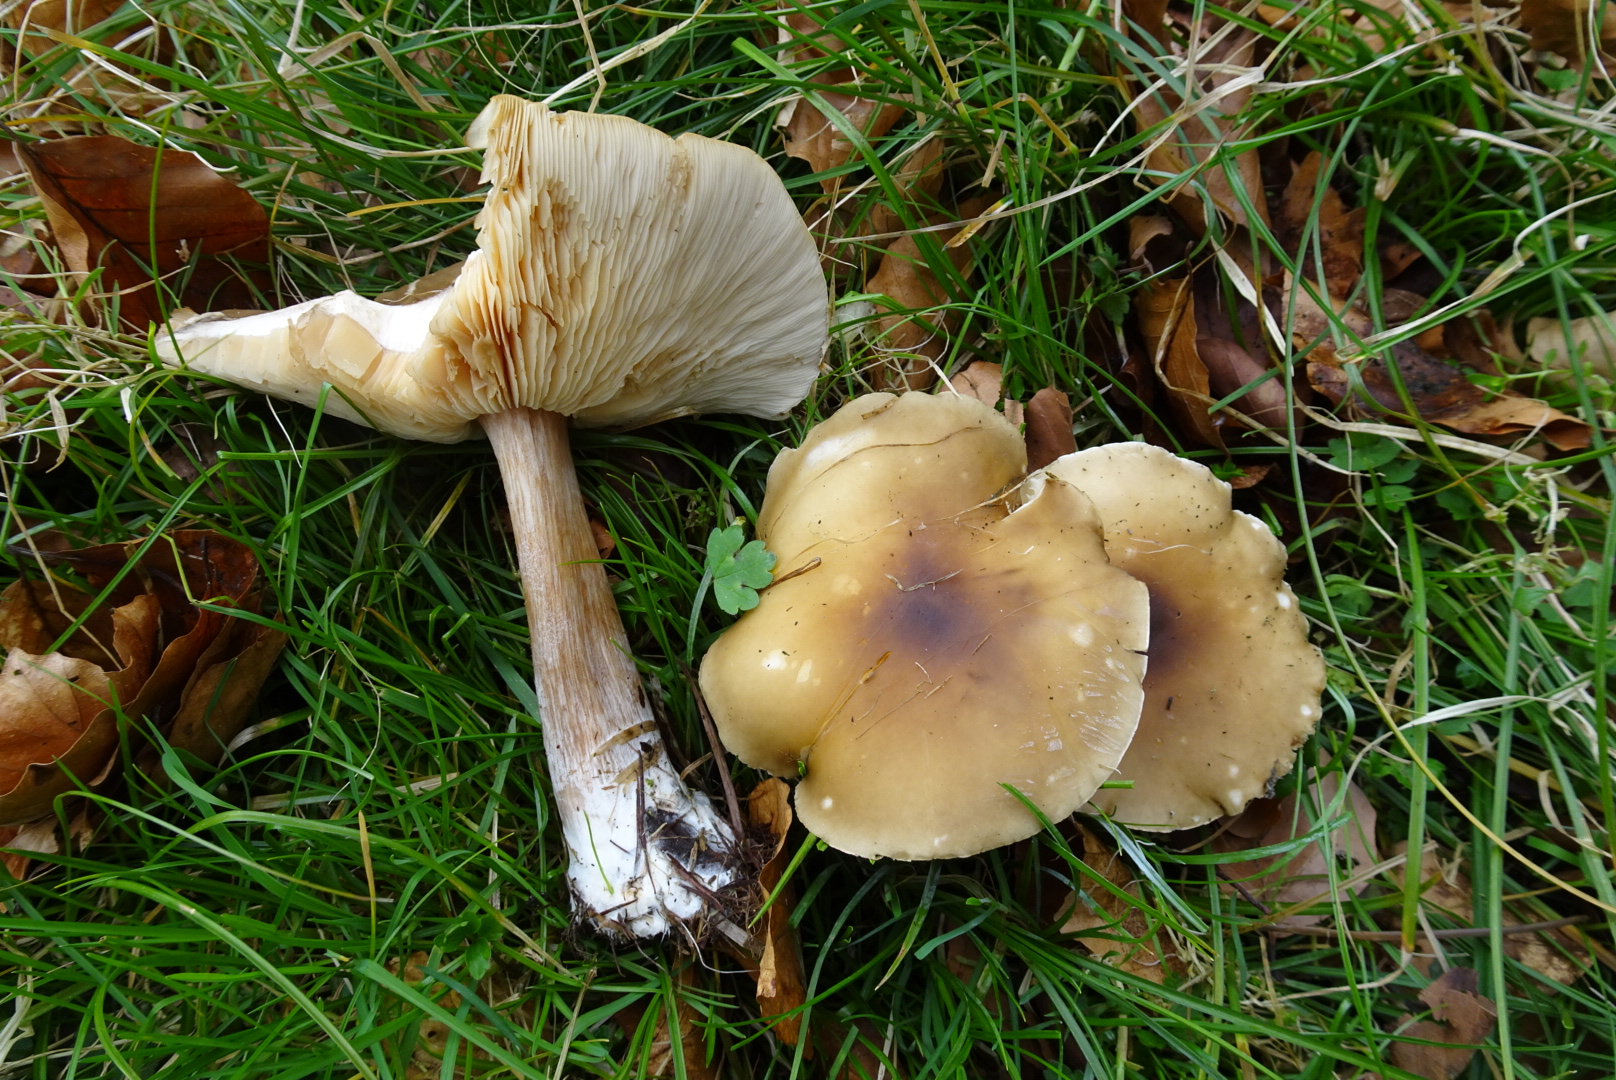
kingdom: Fungi
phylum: Basidiomycota
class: Agaricomycetes
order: Agaricales
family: Tricholomataceae
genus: Melanoleuca
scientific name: Melanoleuca cognata
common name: gyldengrå munkehat
